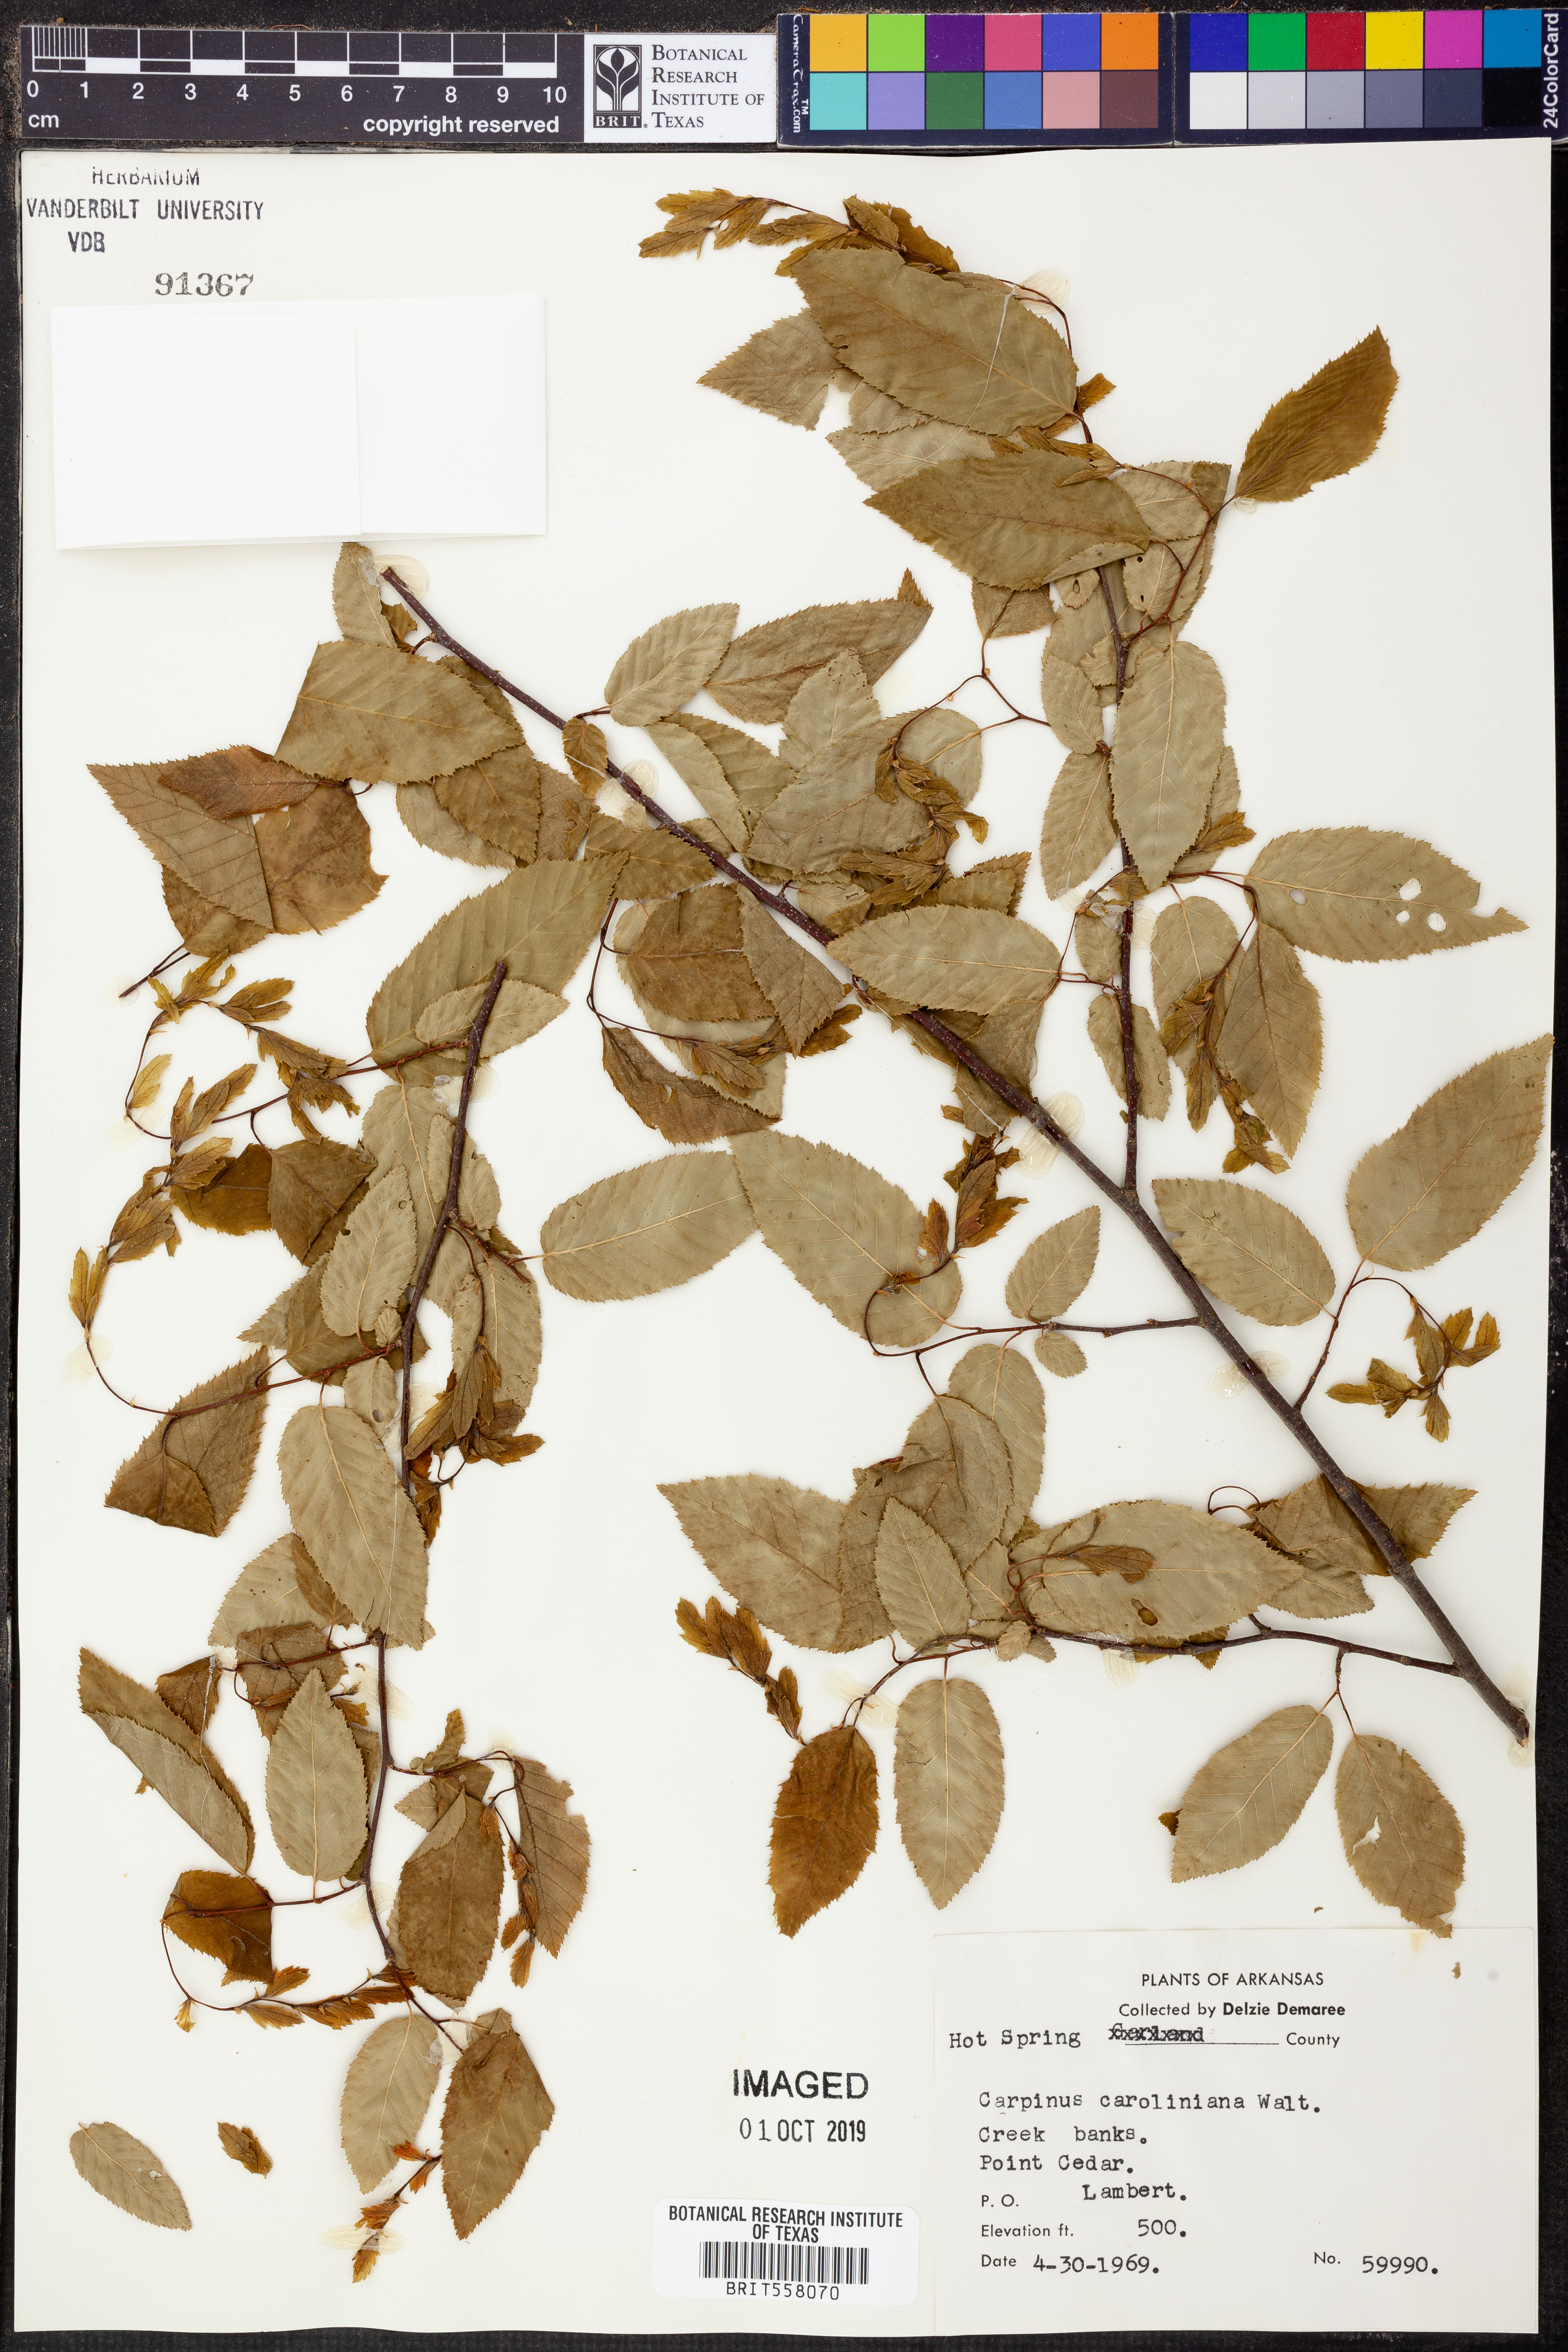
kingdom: Plantae
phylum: Tracheophyta
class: Magnoliopsida
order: Fagales
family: Betulaceae
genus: Carpinus
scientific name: Carpinus caroliniana
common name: American hornbeam
